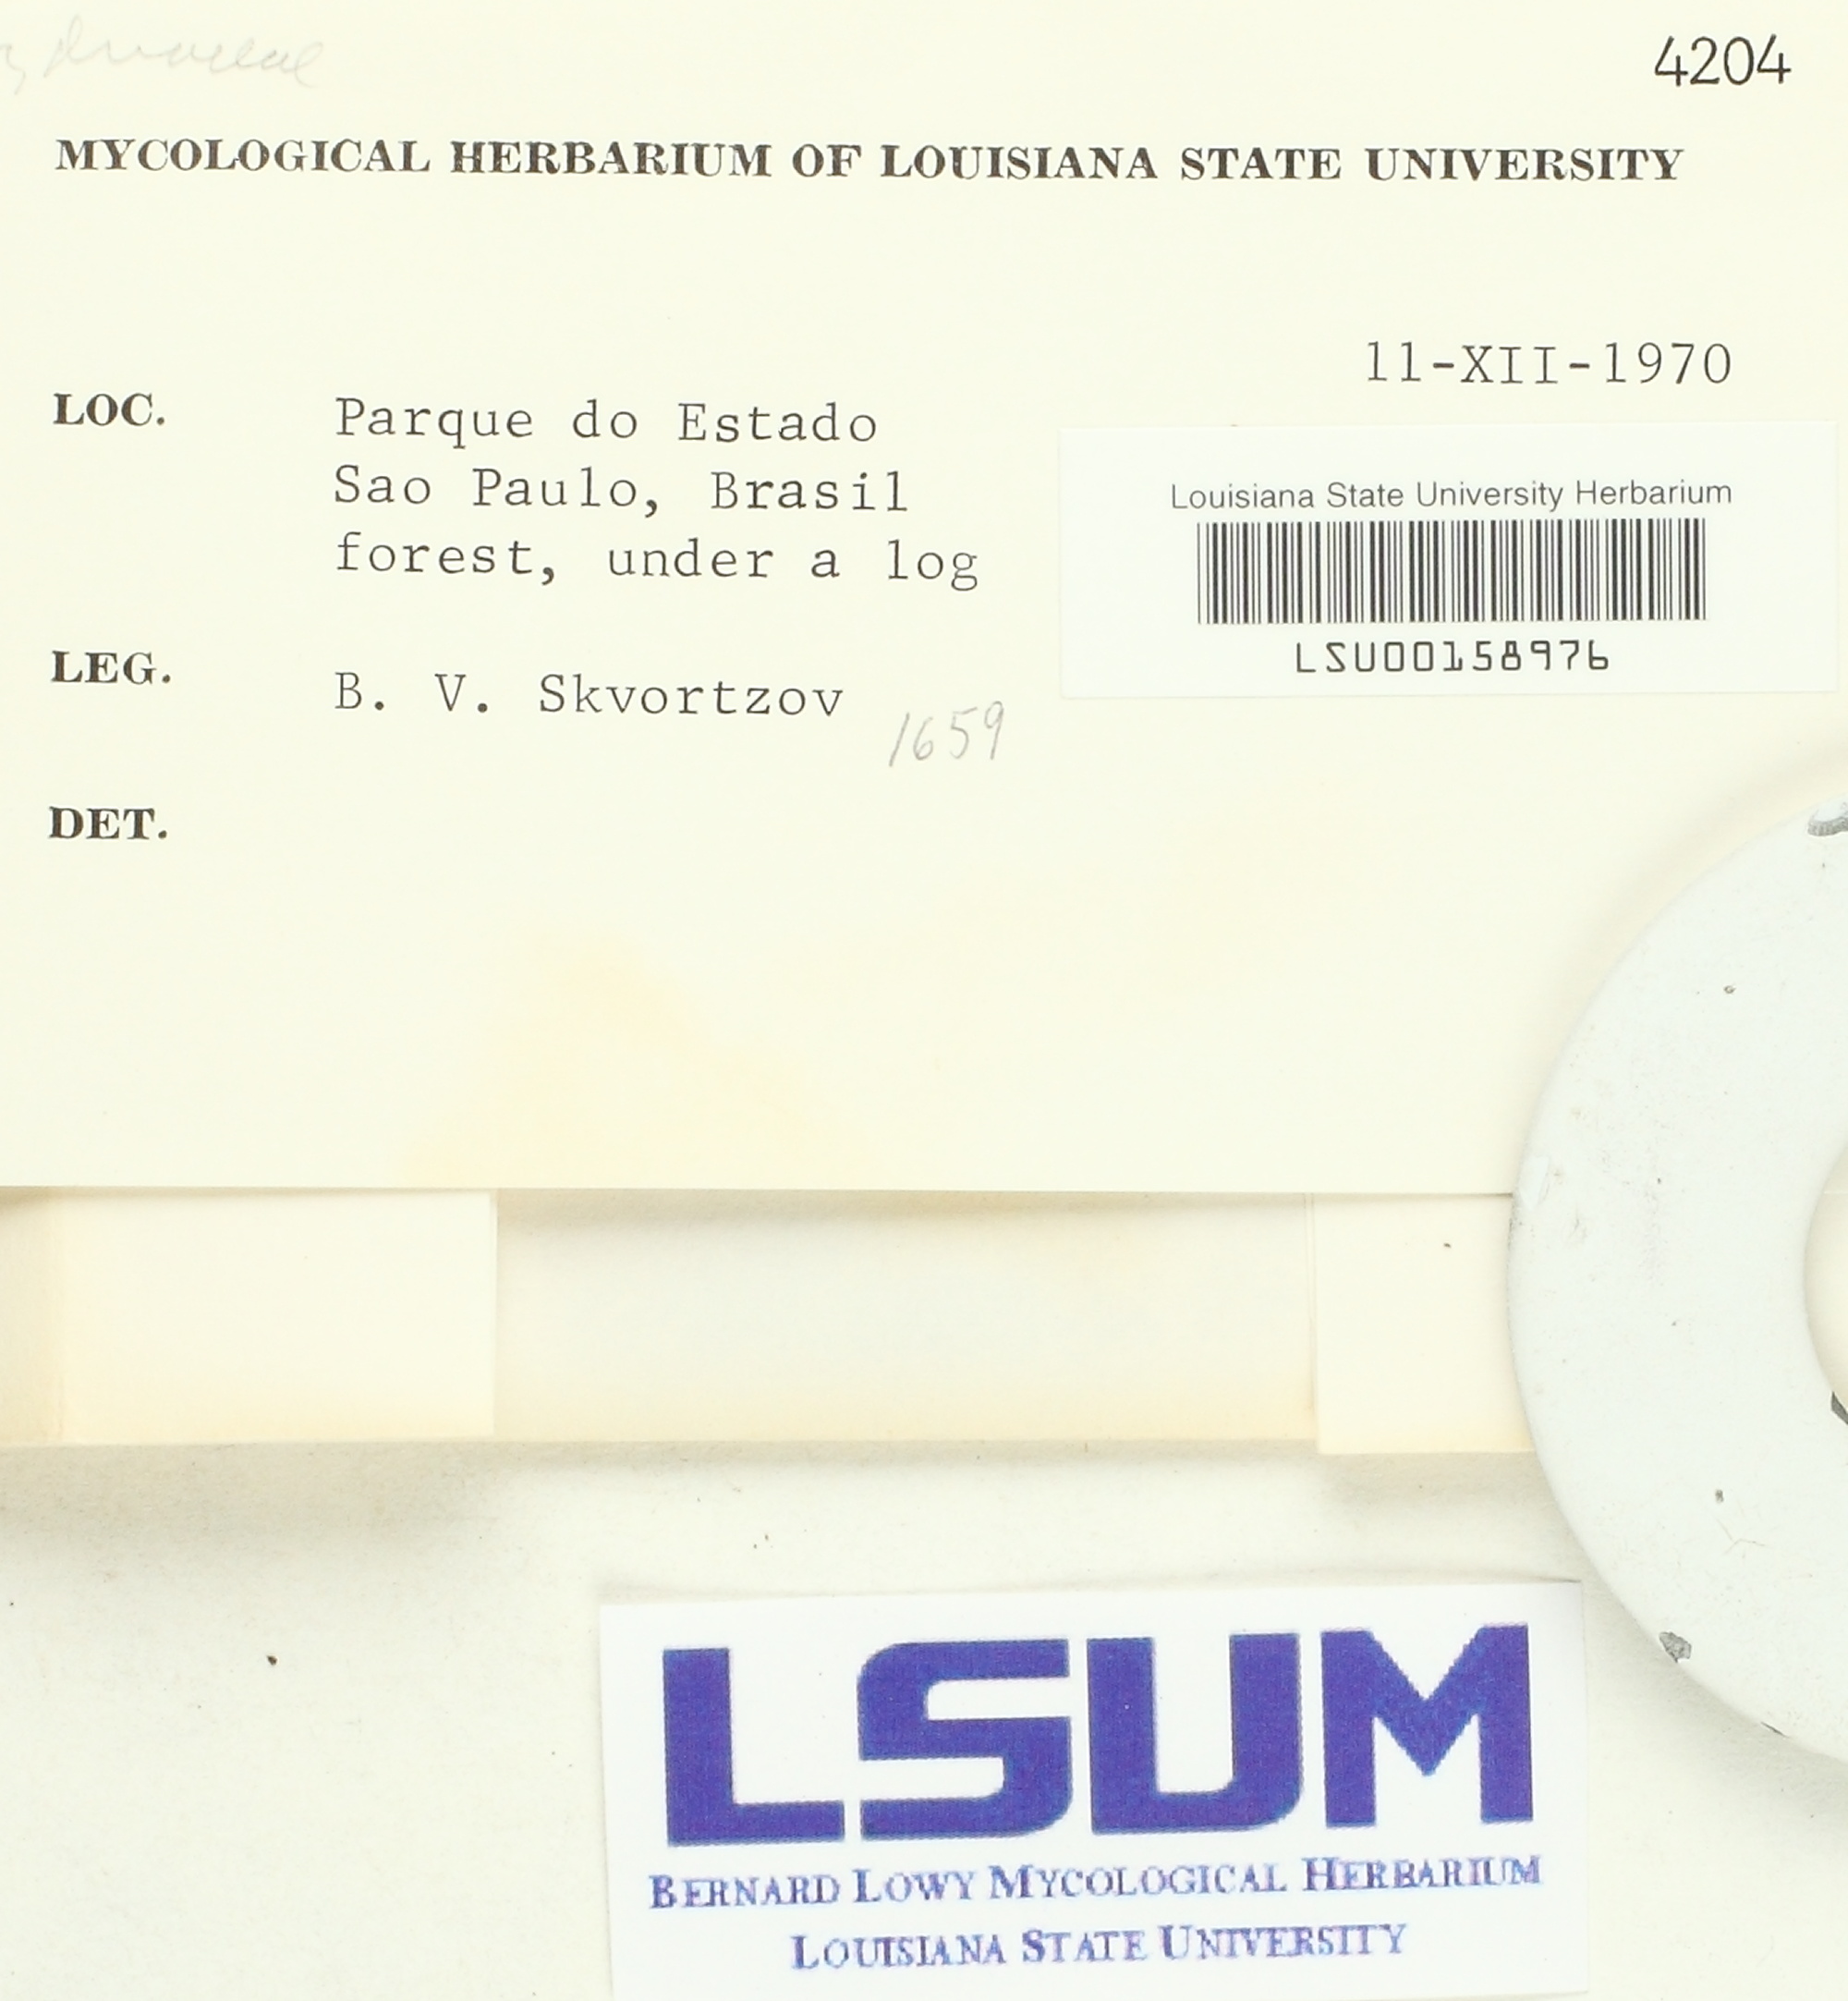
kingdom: Fungi
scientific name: Fungi
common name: Fungi
